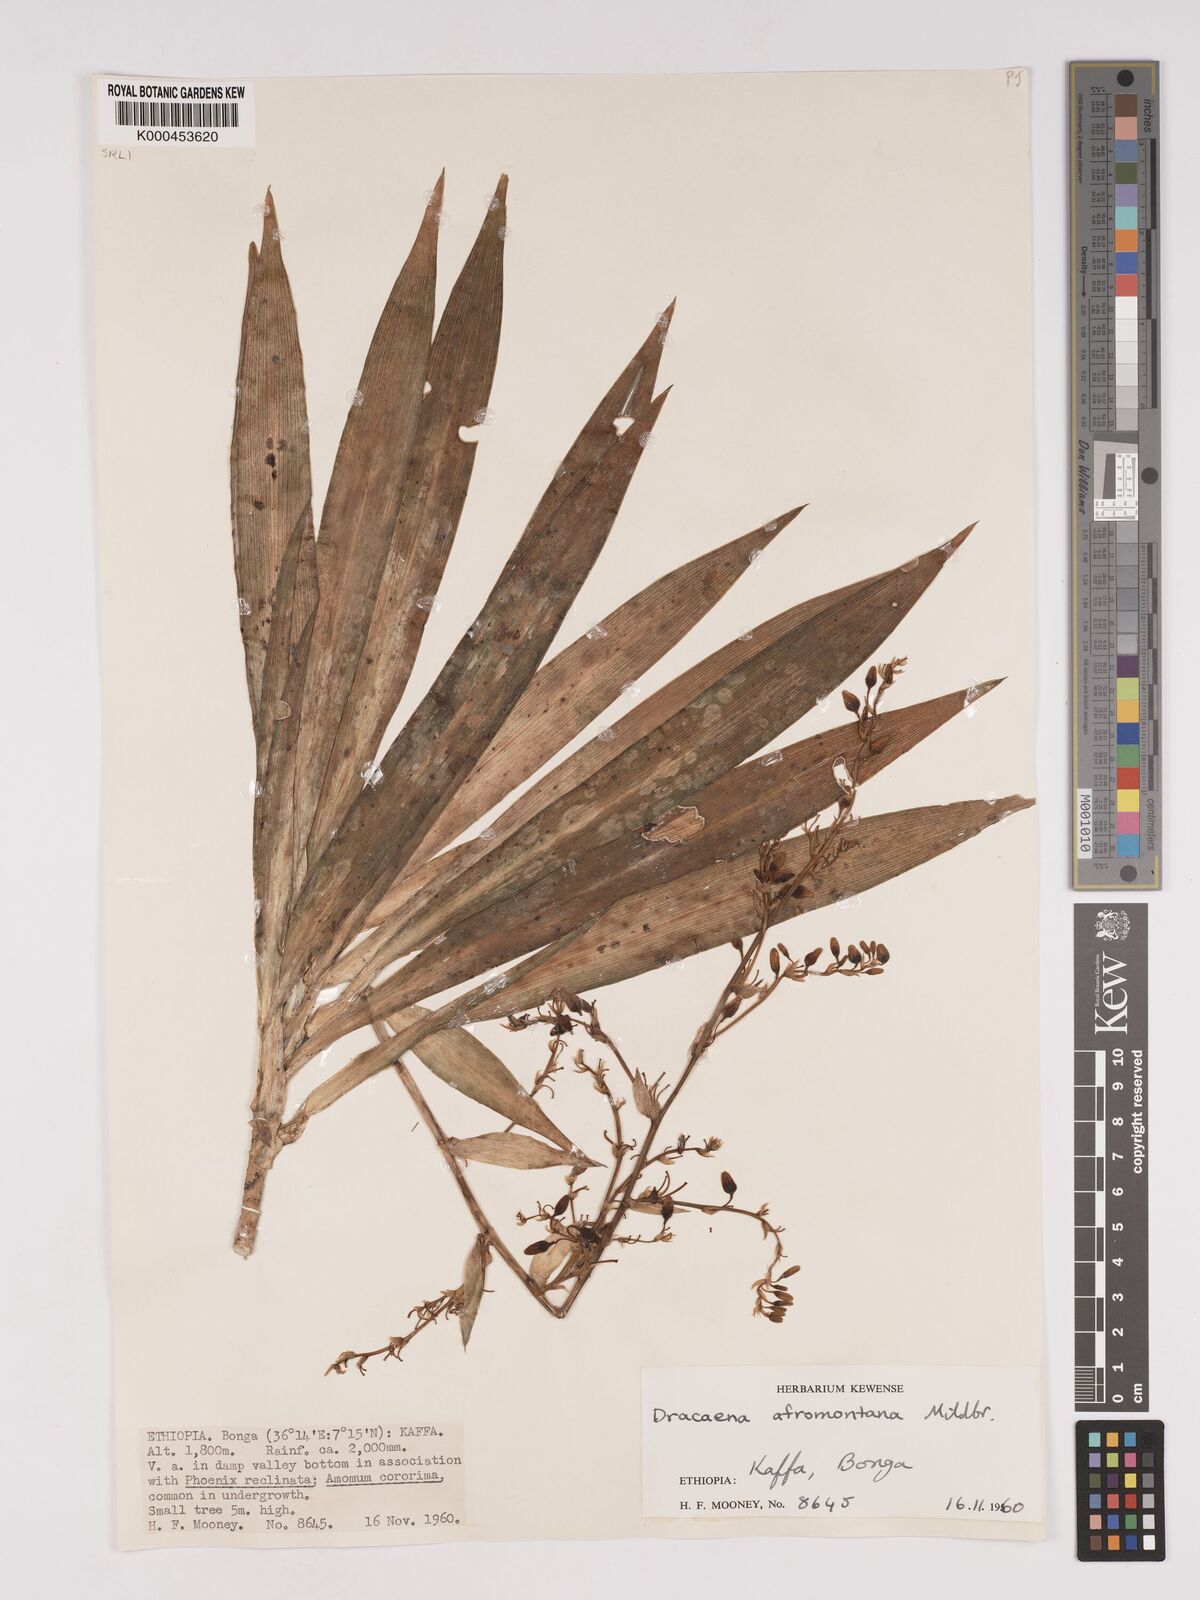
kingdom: Plantae
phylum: Tracheophyta
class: Liliopsida
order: Asparagales
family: Asparagaceae
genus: Dracaena
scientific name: Dracaena afromontana
